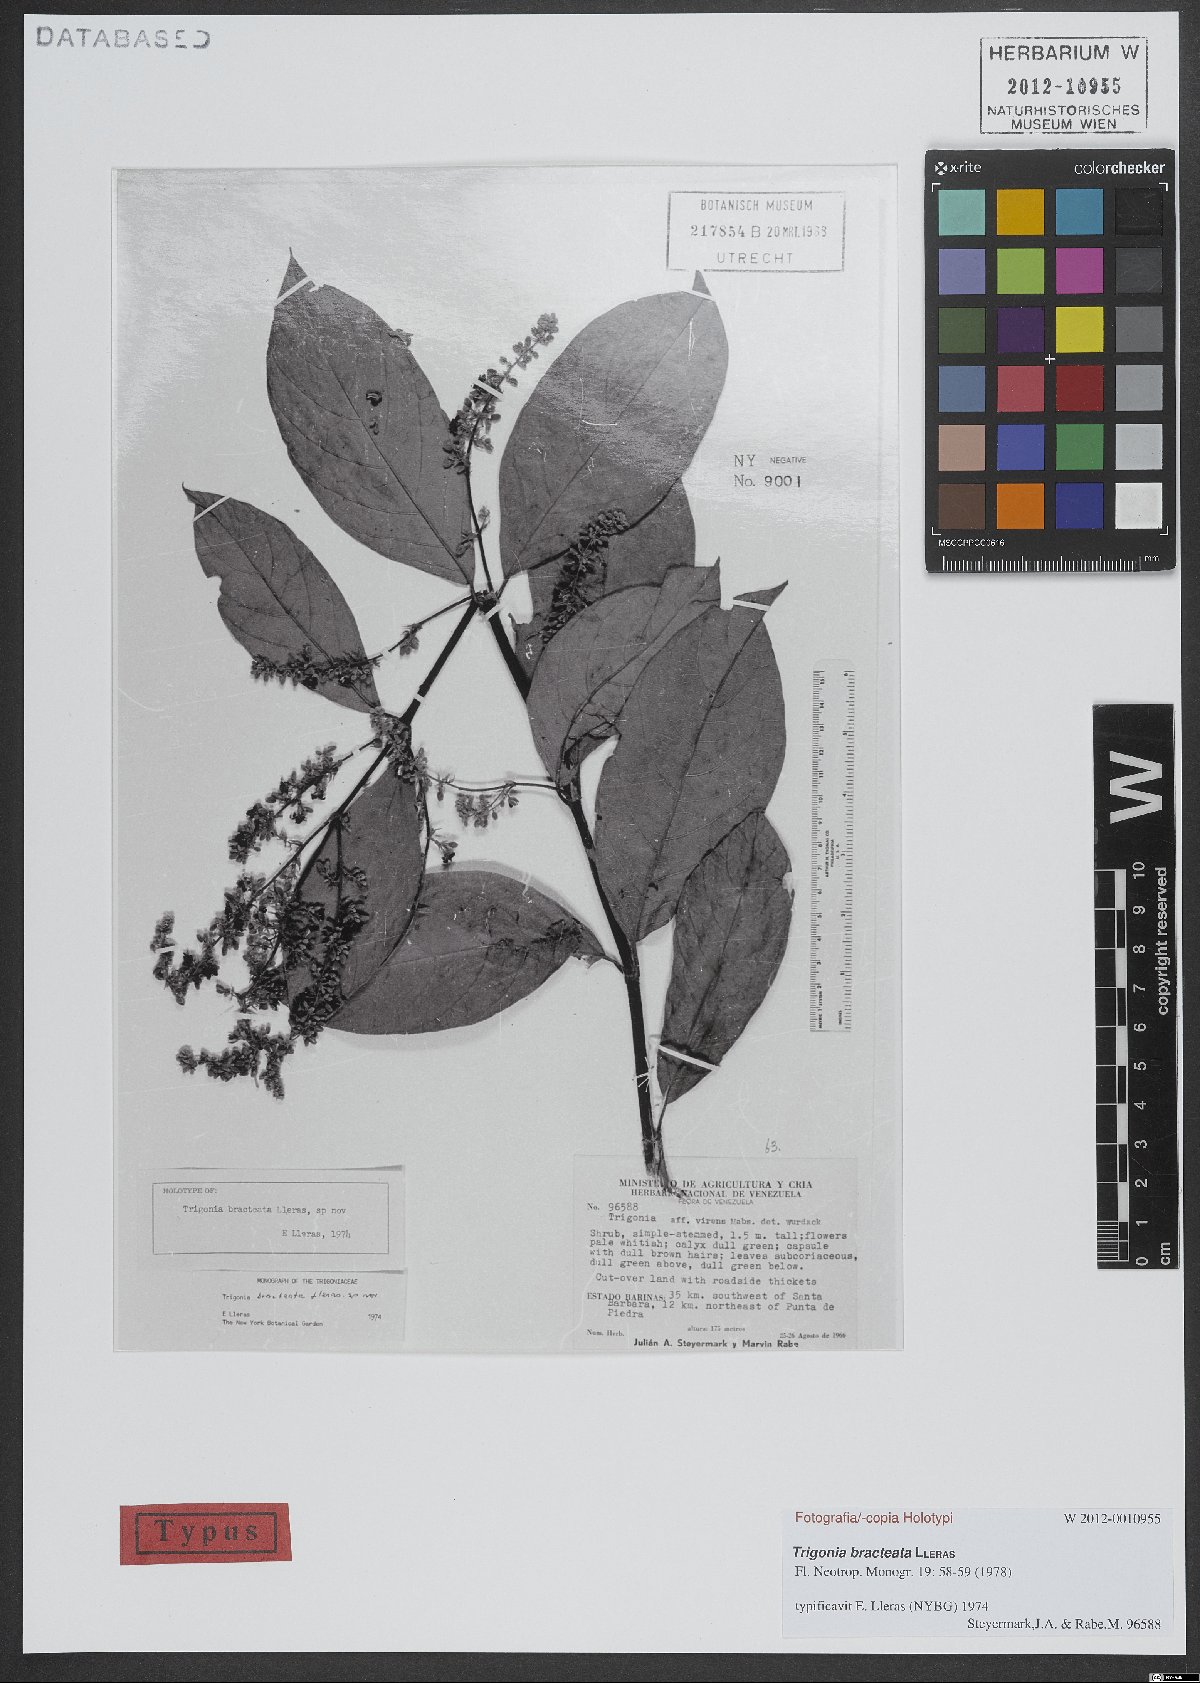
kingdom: Plantae
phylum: Tracheophyta
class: Magnoliopsida
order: Malpighiales
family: Trigoniaceae
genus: Trigonia
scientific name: Trigonia bracteata
